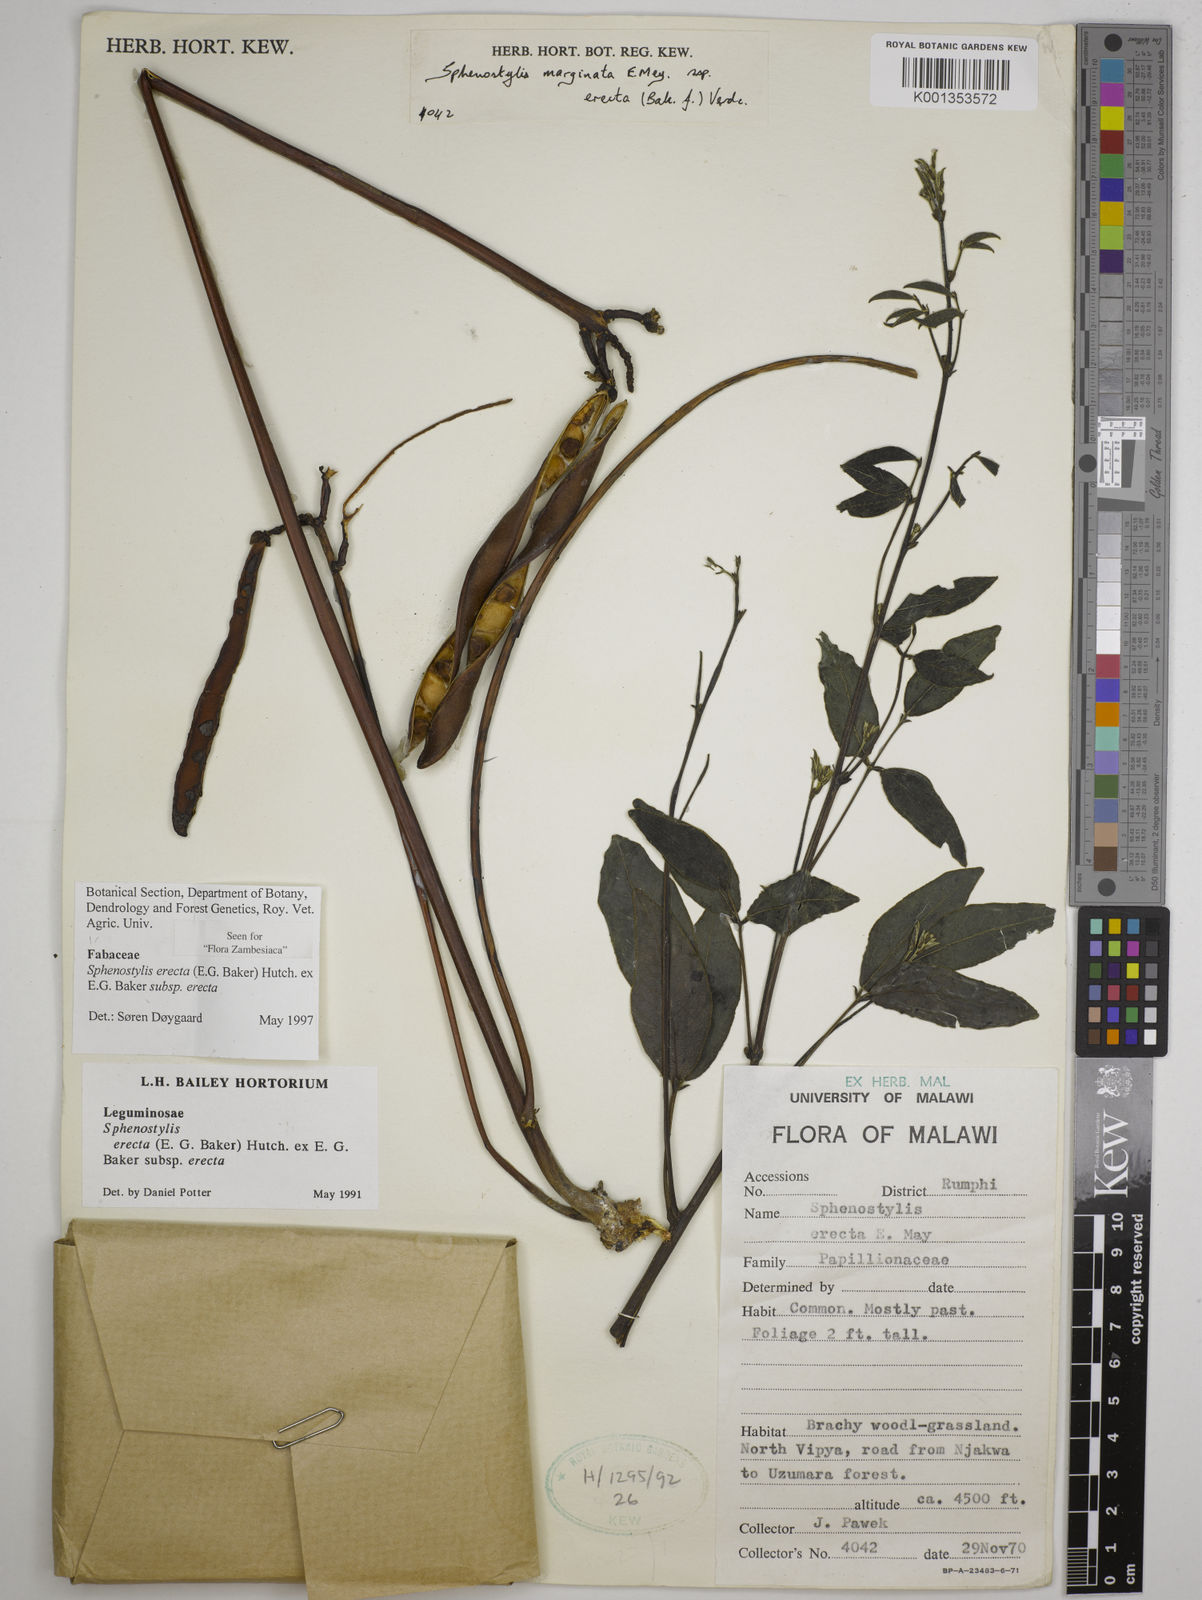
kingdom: Plantae
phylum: Tracheophyta
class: Magnoliopsida
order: Fabales
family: Fabaceae
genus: Sphenostylis
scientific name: Sphenostylis erecta
